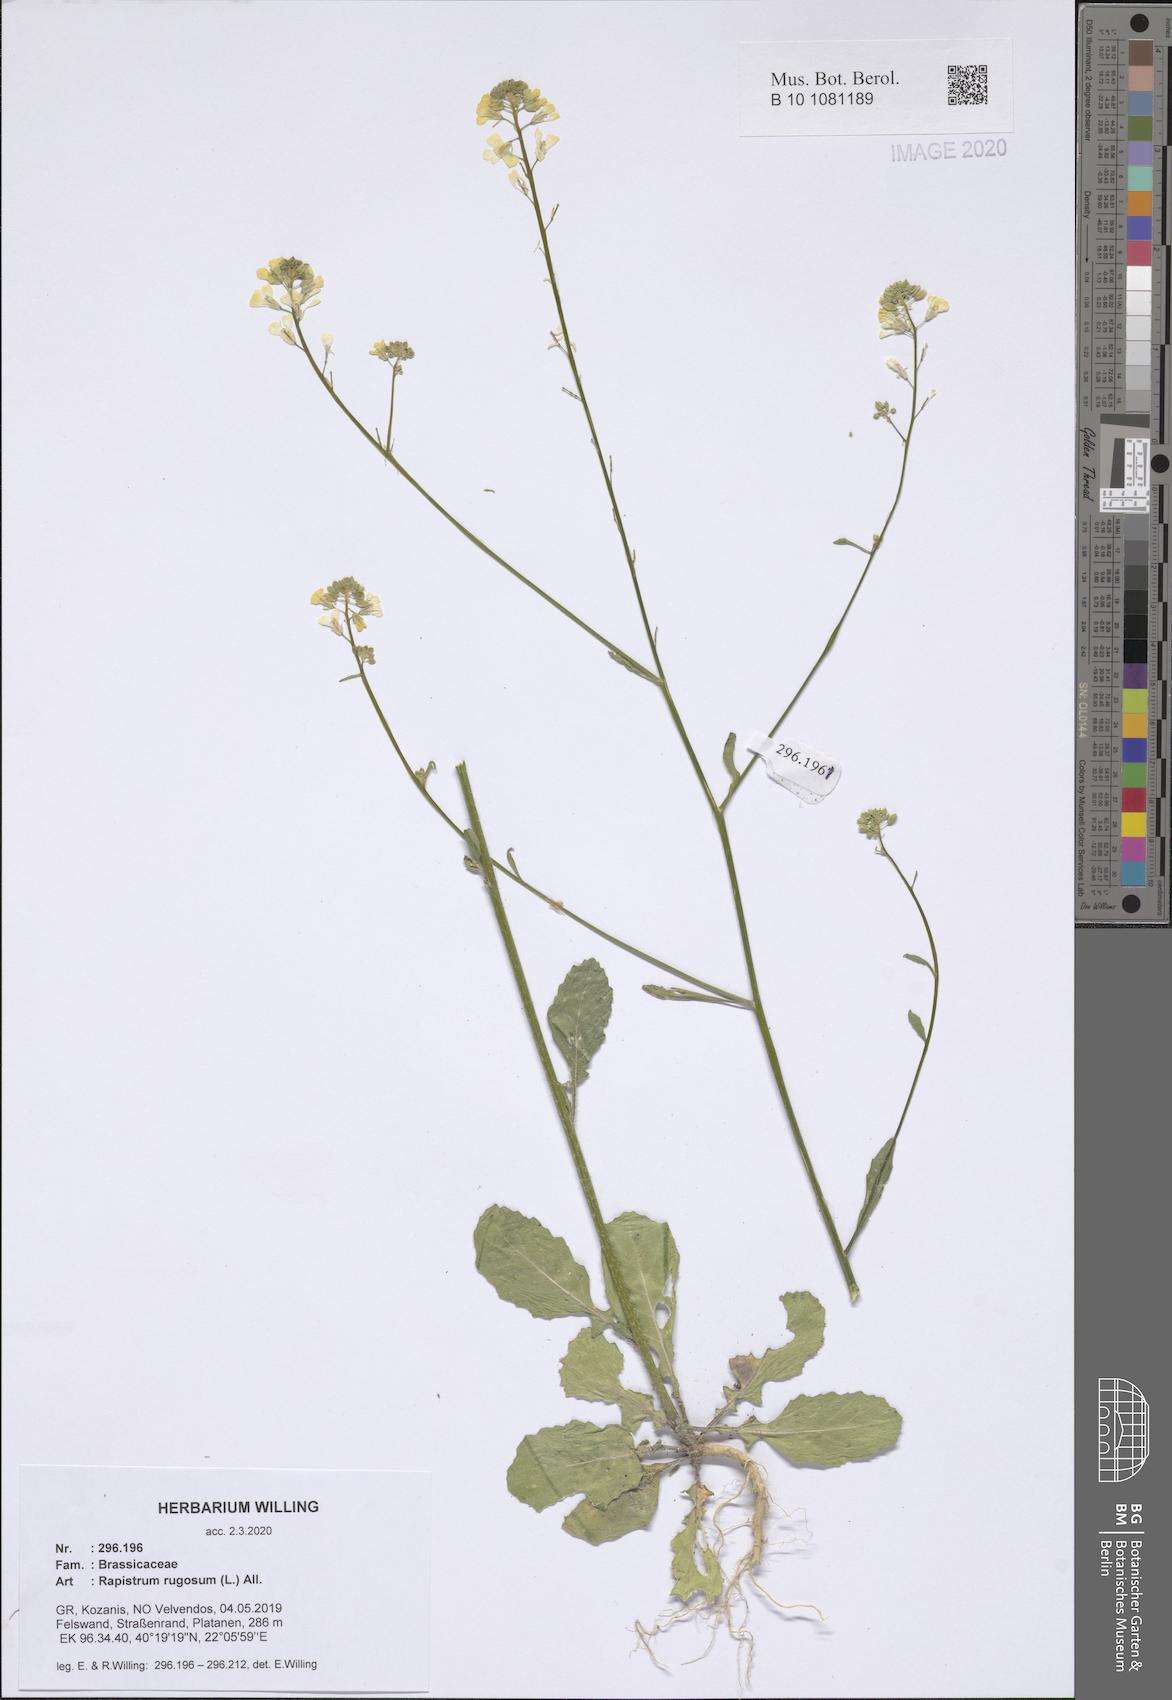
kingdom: Plantae
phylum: Tracheophyta
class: Magnoliopsida
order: Brassicales
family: Brassicaceae
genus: Rapistrum
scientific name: Rapistrum rugosum
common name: Annual bastardcabbage
